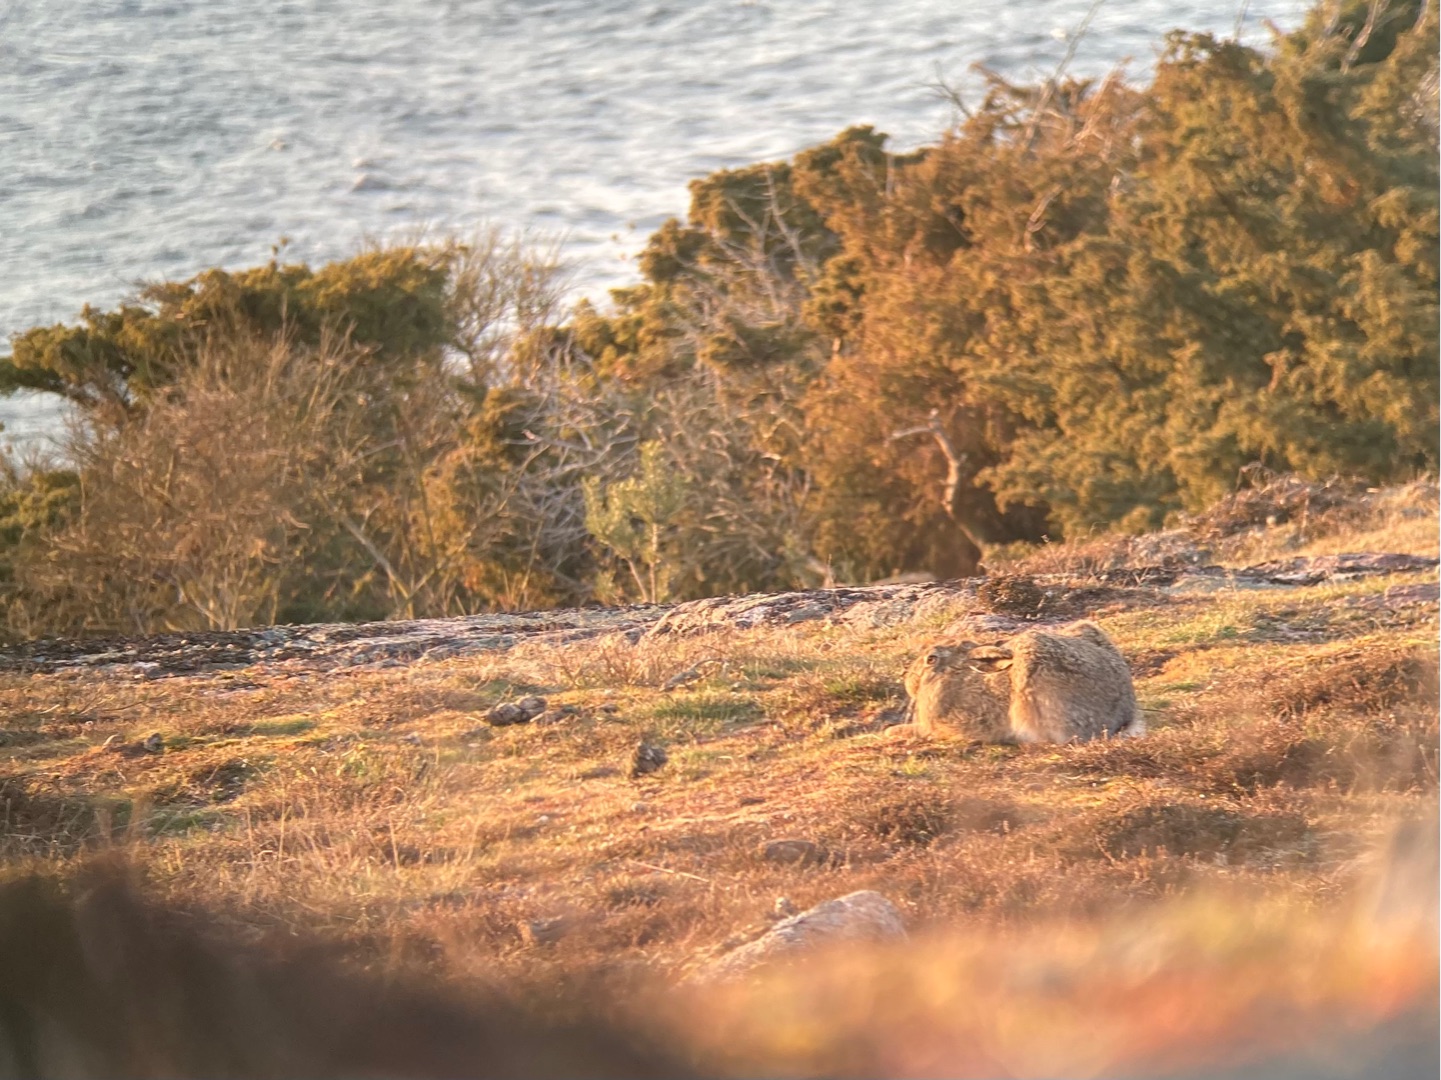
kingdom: Animalia
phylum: Chordata
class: Mammalia
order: Lagomorpha
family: Leporidae
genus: Lepus
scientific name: Lepus europaeus
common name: Hare
